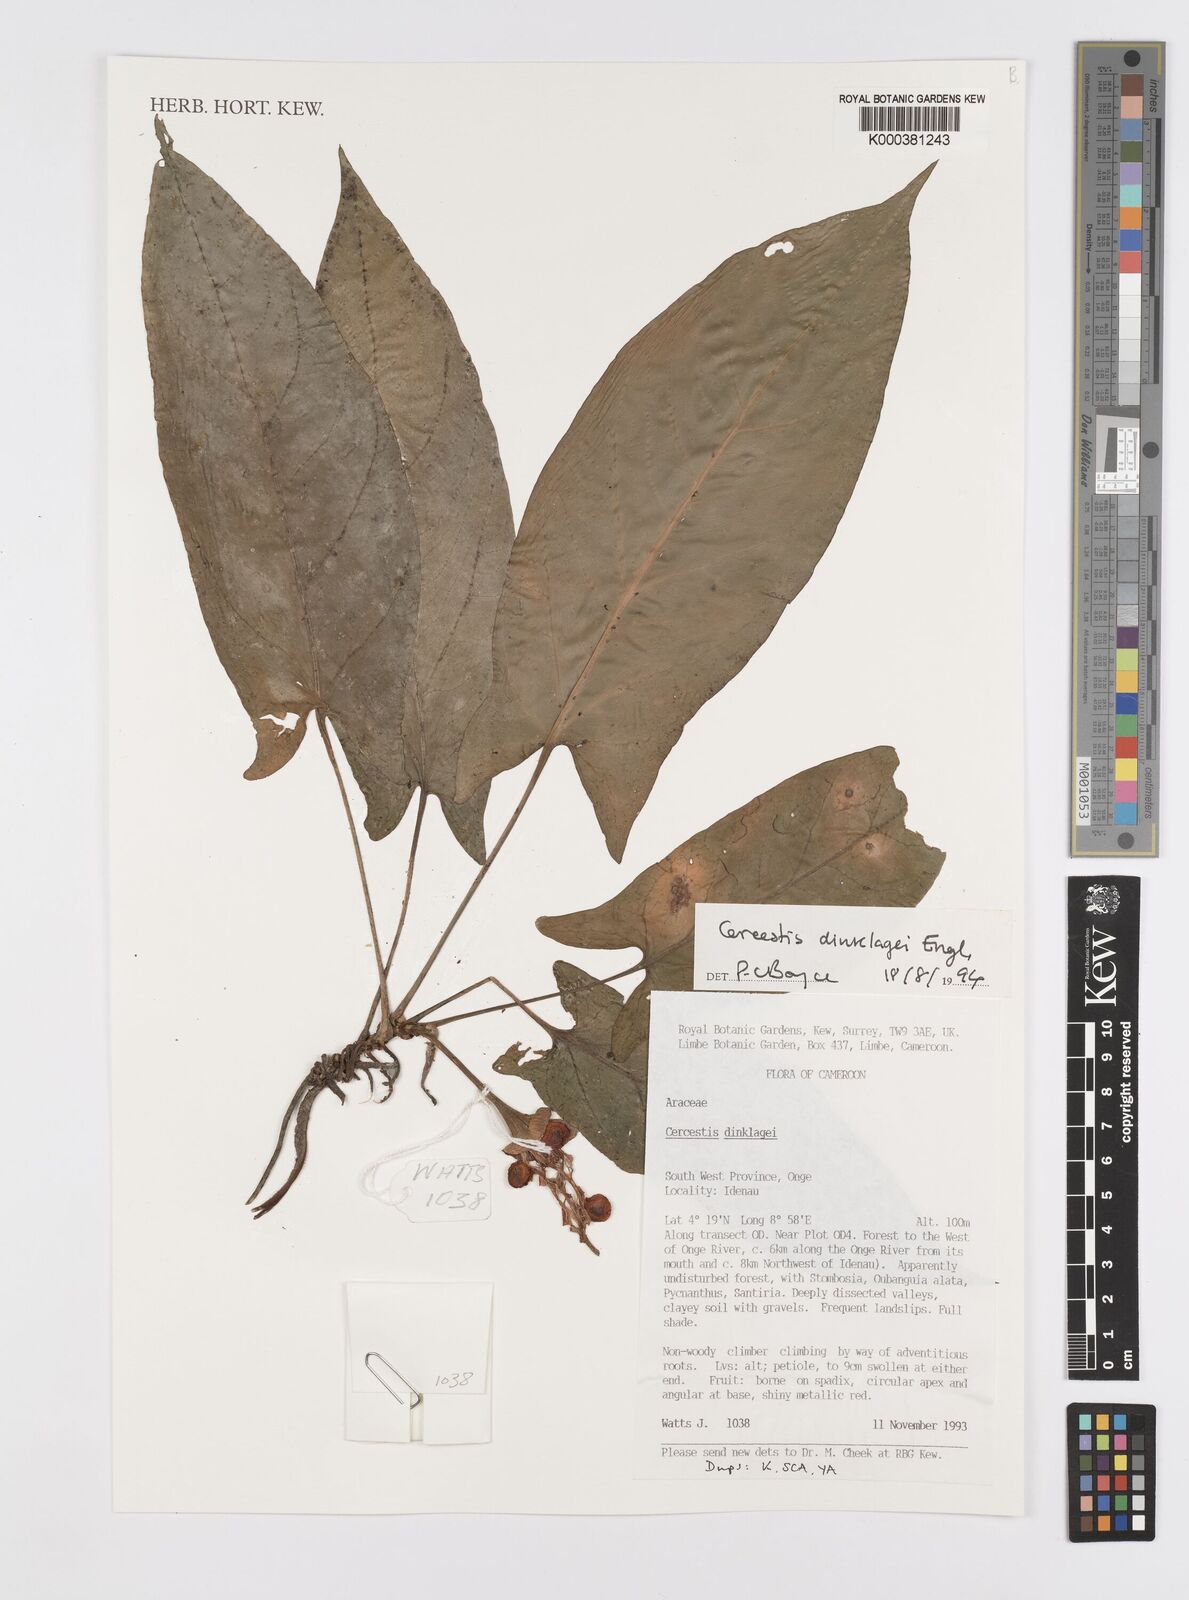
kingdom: Plantae
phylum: Tracheophyta
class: Liliopsida
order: Alismatales
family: Araceae
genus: Cercestis
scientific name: Cercestis dinklagei
